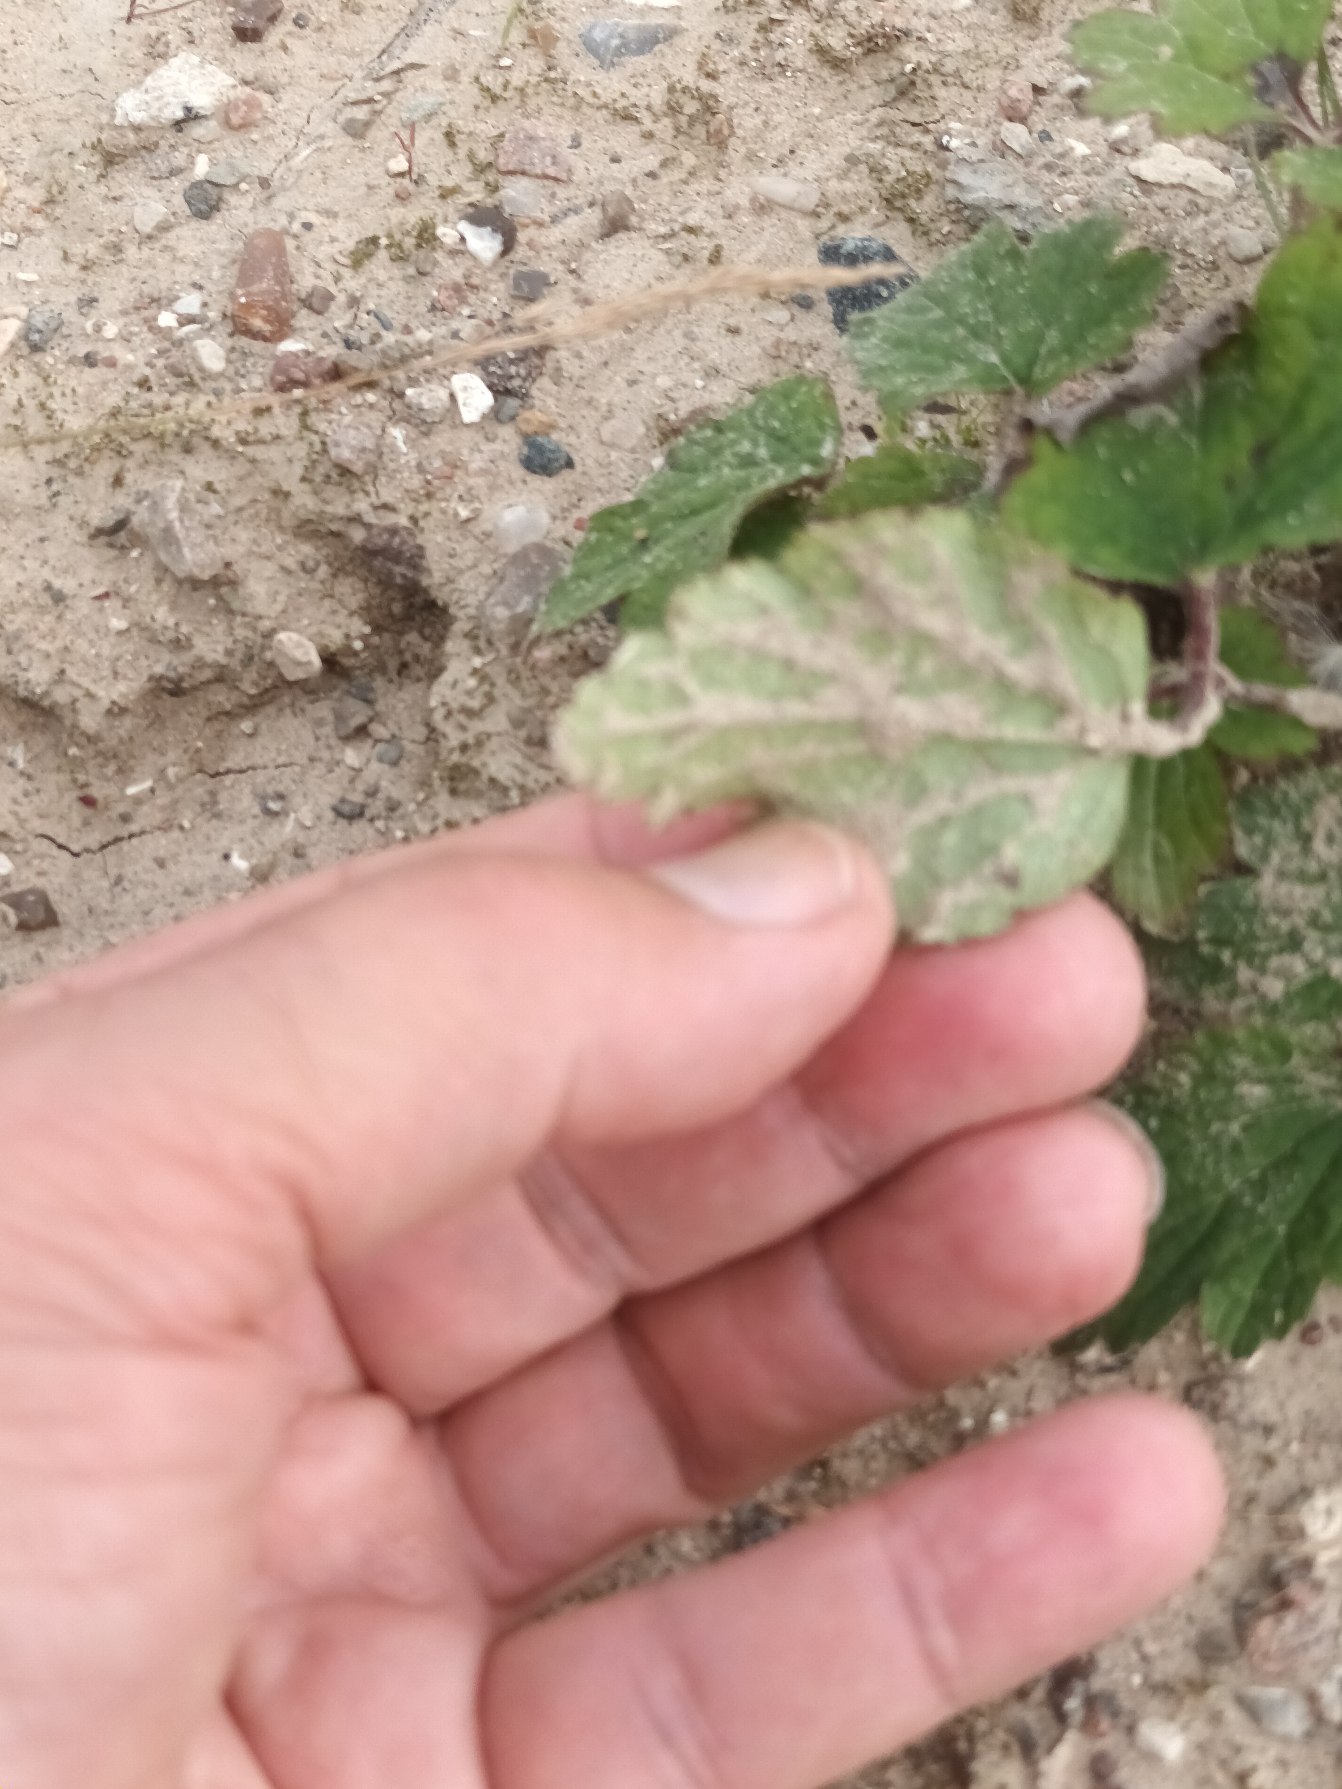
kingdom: Plantae
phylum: Tracheophyta
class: Magnoliopsida
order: Ranunculales
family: Ranunculaceae
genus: Eriocapitella
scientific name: Eriocapitella hupehensis
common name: Høst-anemone
